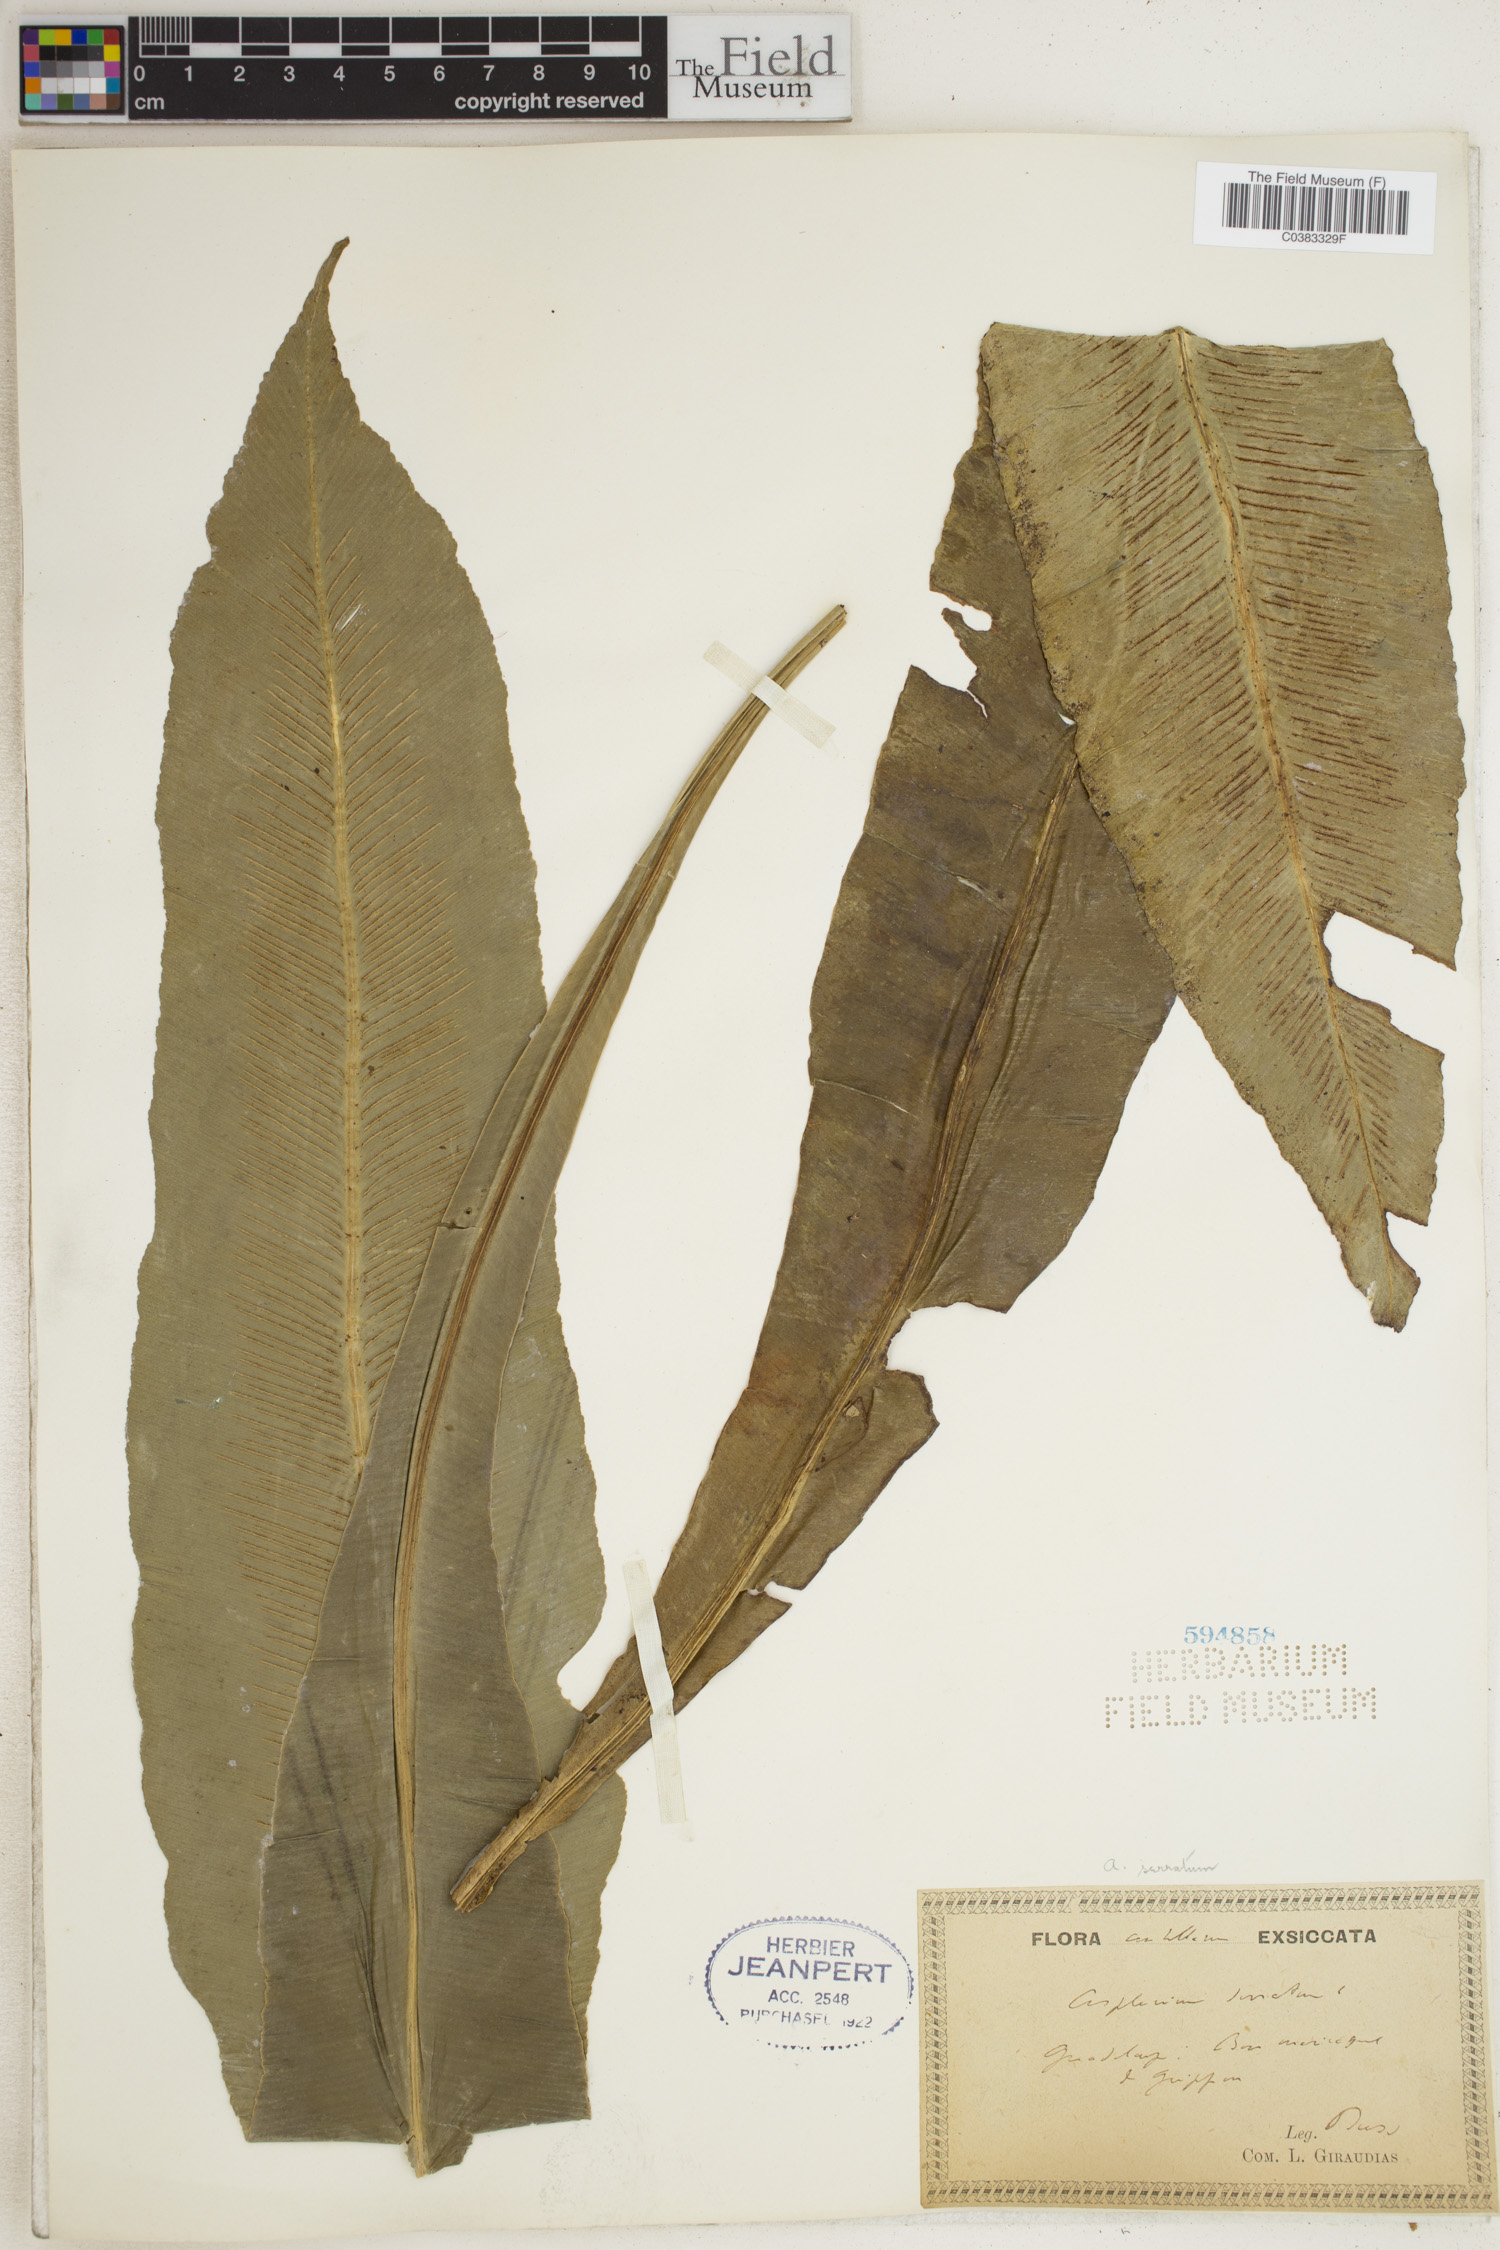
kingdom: Plantae
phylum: Tracheophyta
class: Polypodiopsida
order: Polypodiales
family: Aspleniaceae
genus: Asplenium
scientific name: Asplenium serratum
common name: Wild birdnest fern
